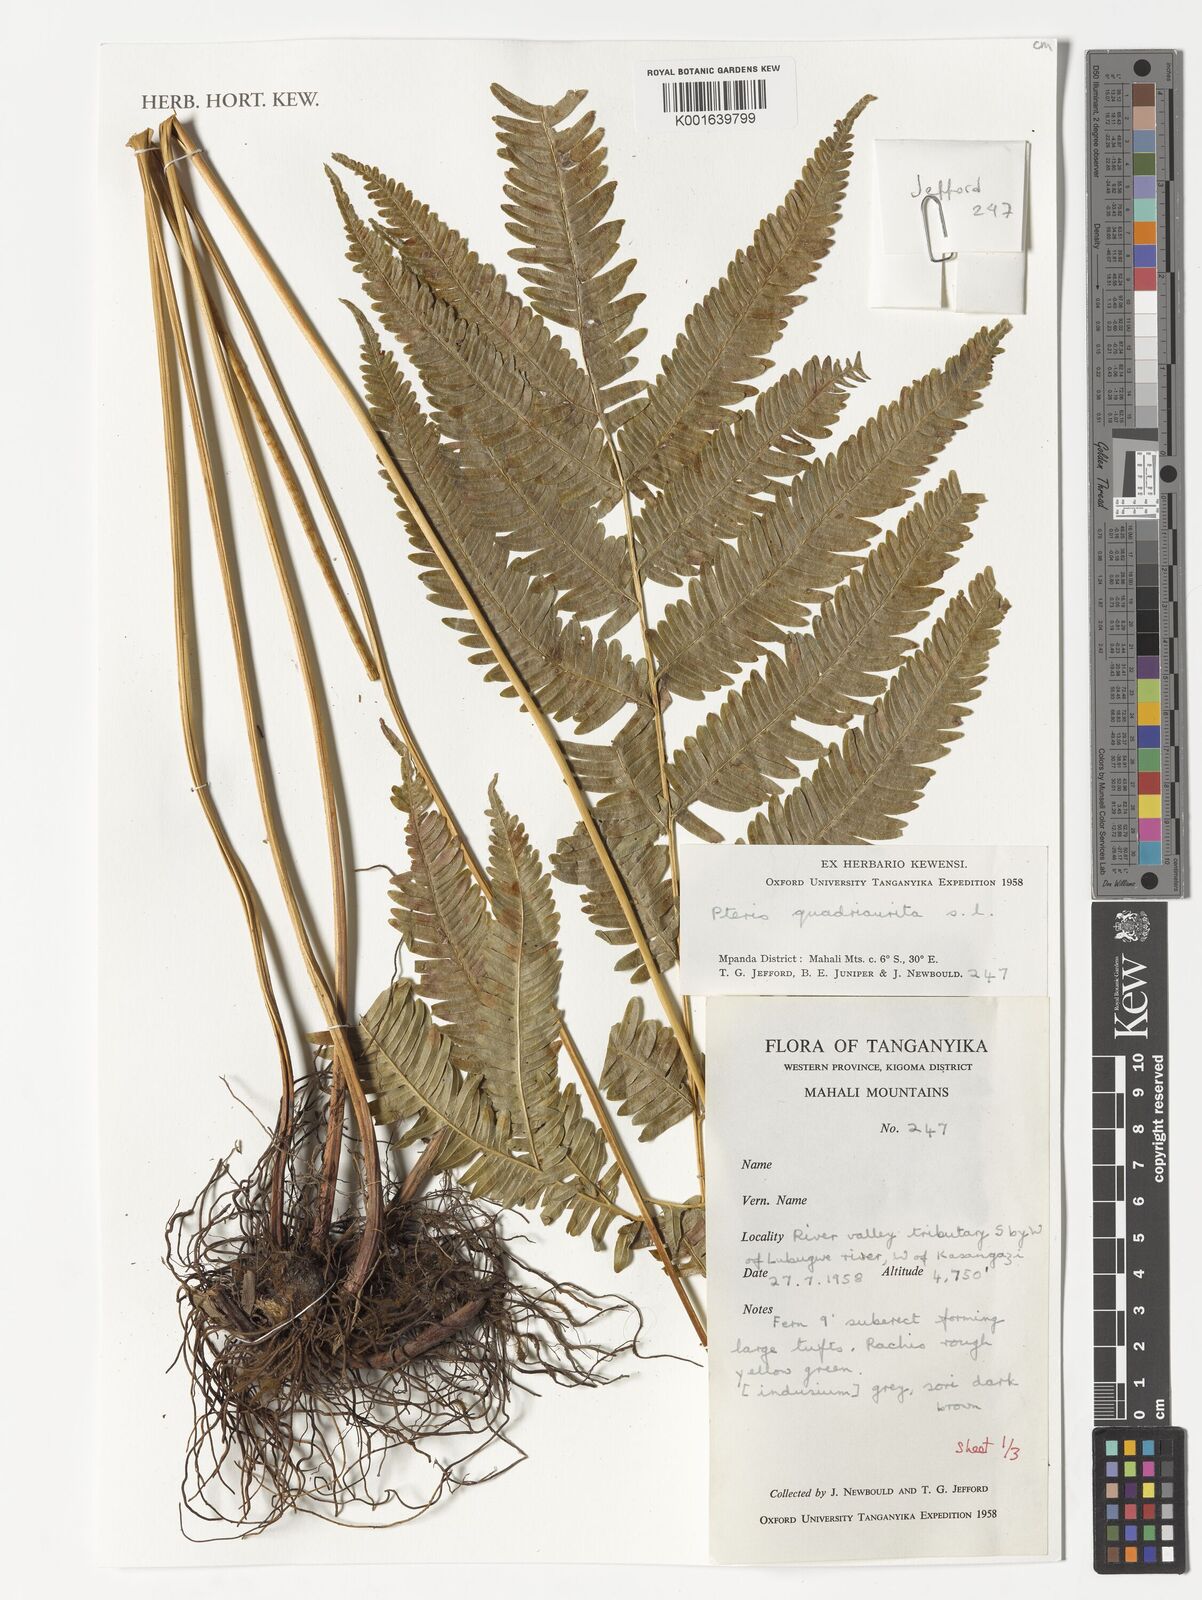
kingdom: Plantae
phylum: Tracheophyta
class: Polypodiopsida
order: Polypodiales
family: Pteridaceae
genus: Pteris
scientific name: Pteris quadriaurita
